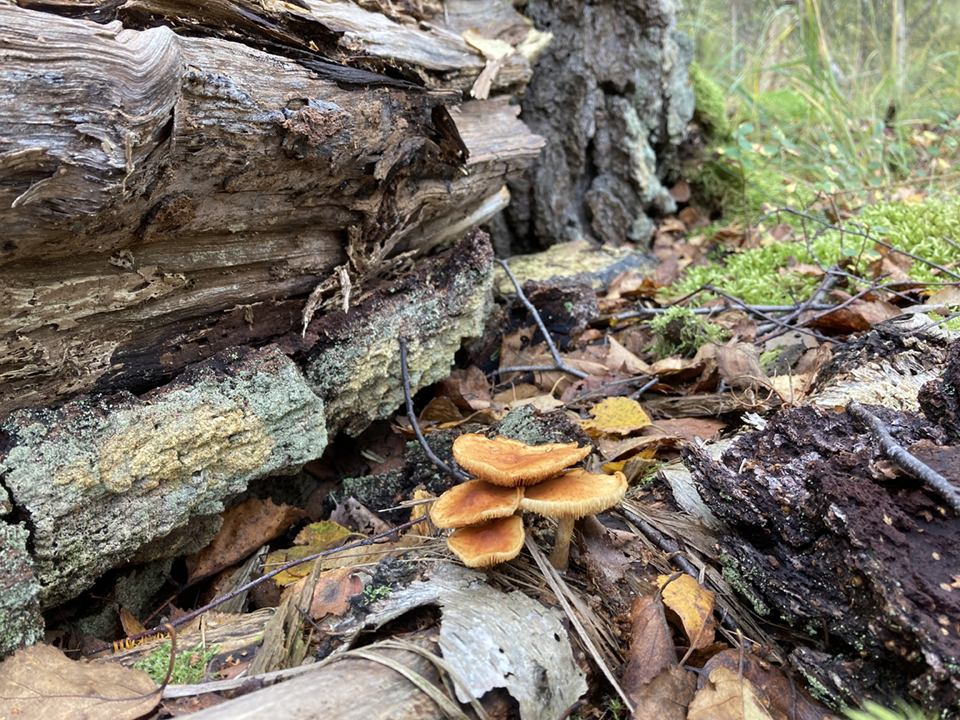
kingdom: Fungi
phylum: Basidiomycota
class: Agaricomycetes
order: Agaricales
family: Hymenogastraceae
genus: Gymnopilus
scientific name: Gymnopilus penetrans
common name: plettet flammehat
